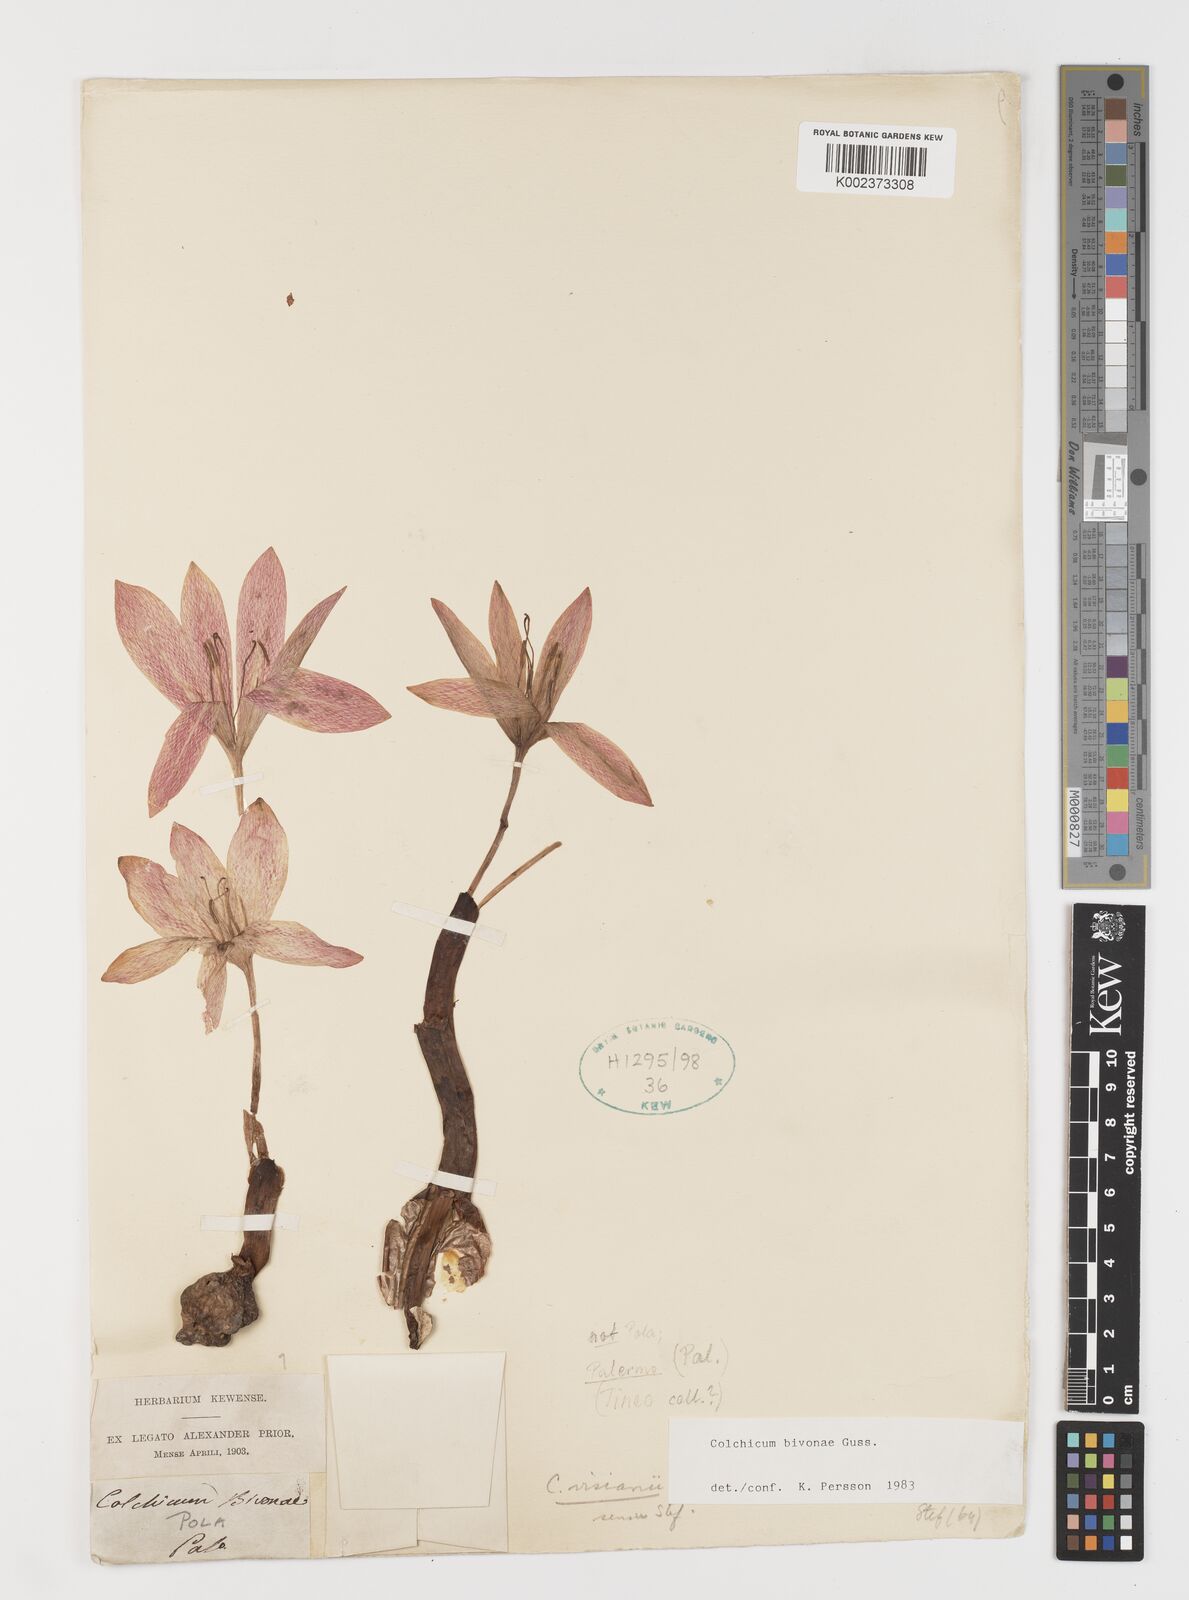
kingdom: Plantae
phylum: Tracheophyta
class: Liliopsida
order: Liliales
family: Colchicaceae
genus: Colchicum
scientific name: Colchicum bivonae
